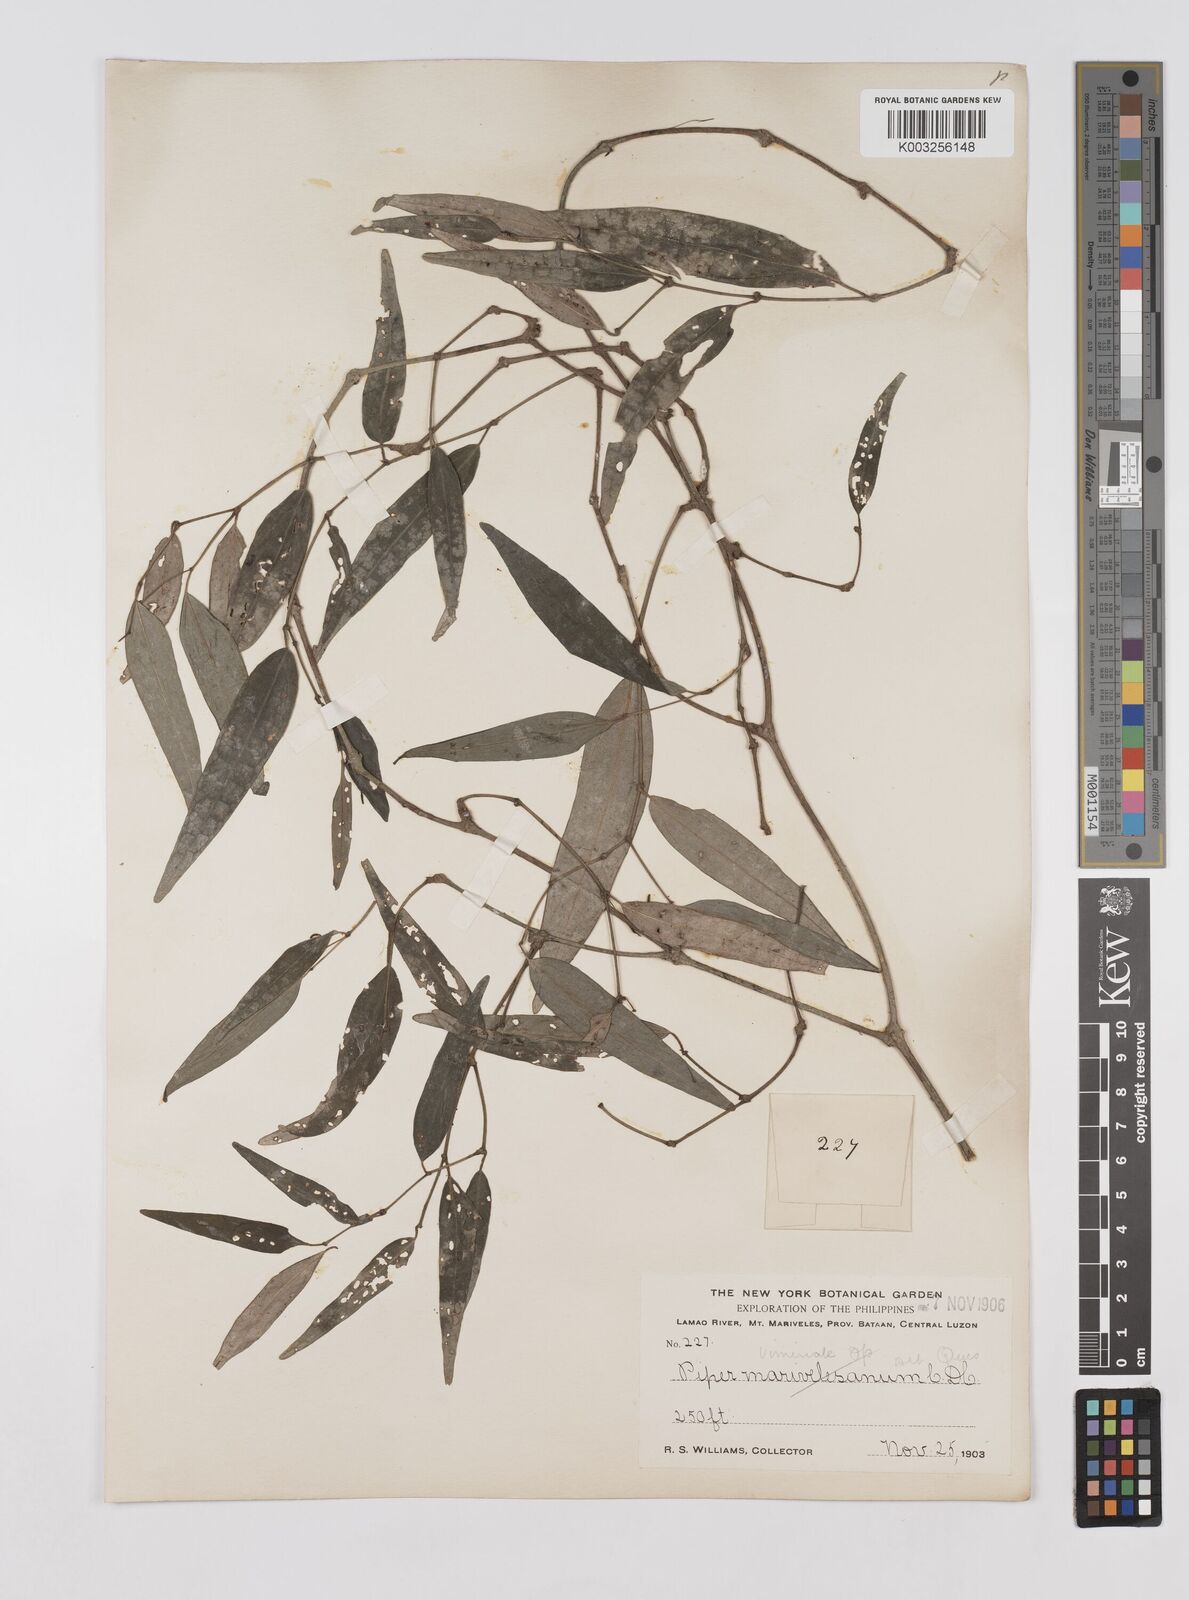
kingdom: Plantae
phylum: Tracheophyta
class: Magnoliopsida
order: Piperales
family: Piperaceae
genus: Piper
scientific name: Piper lanatum
